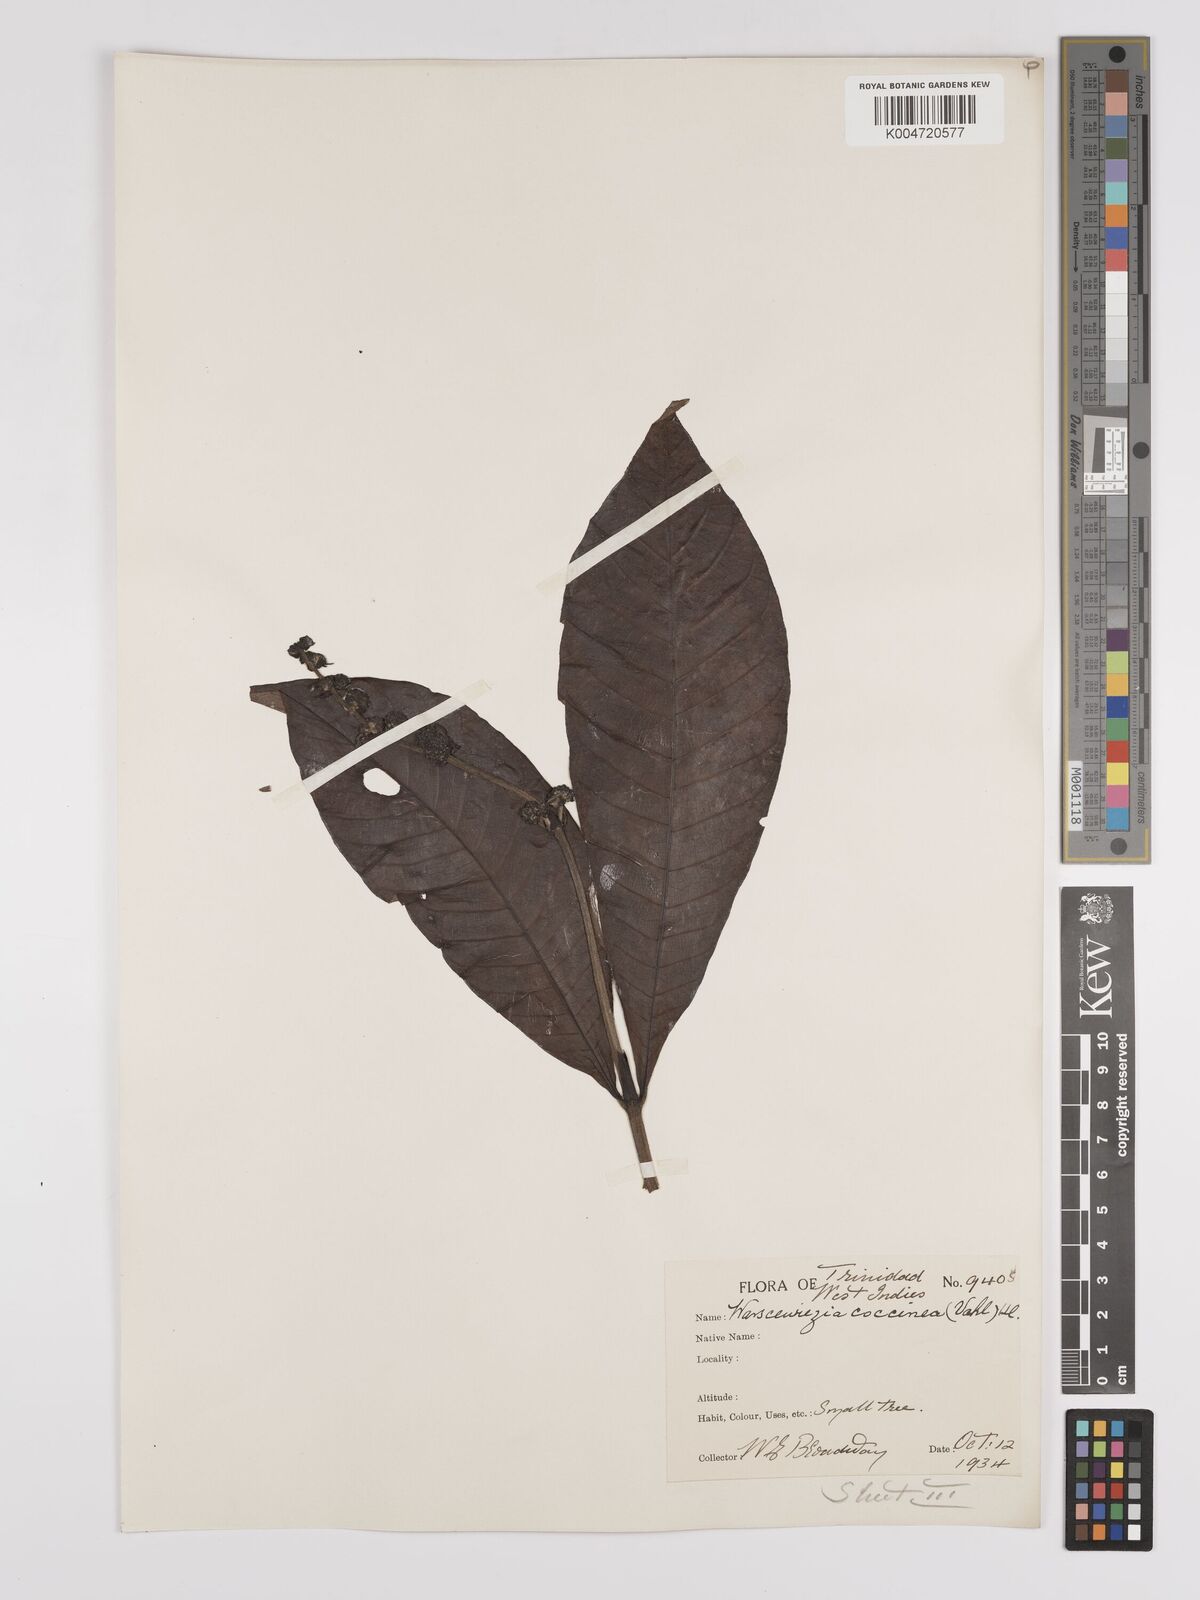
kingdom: Plantae
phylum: Tracheophyta
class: Magnoliopsida
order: Gentianales
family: Rubiaceae
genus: Warszewiczia
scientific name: Warszewiczia coccinea
